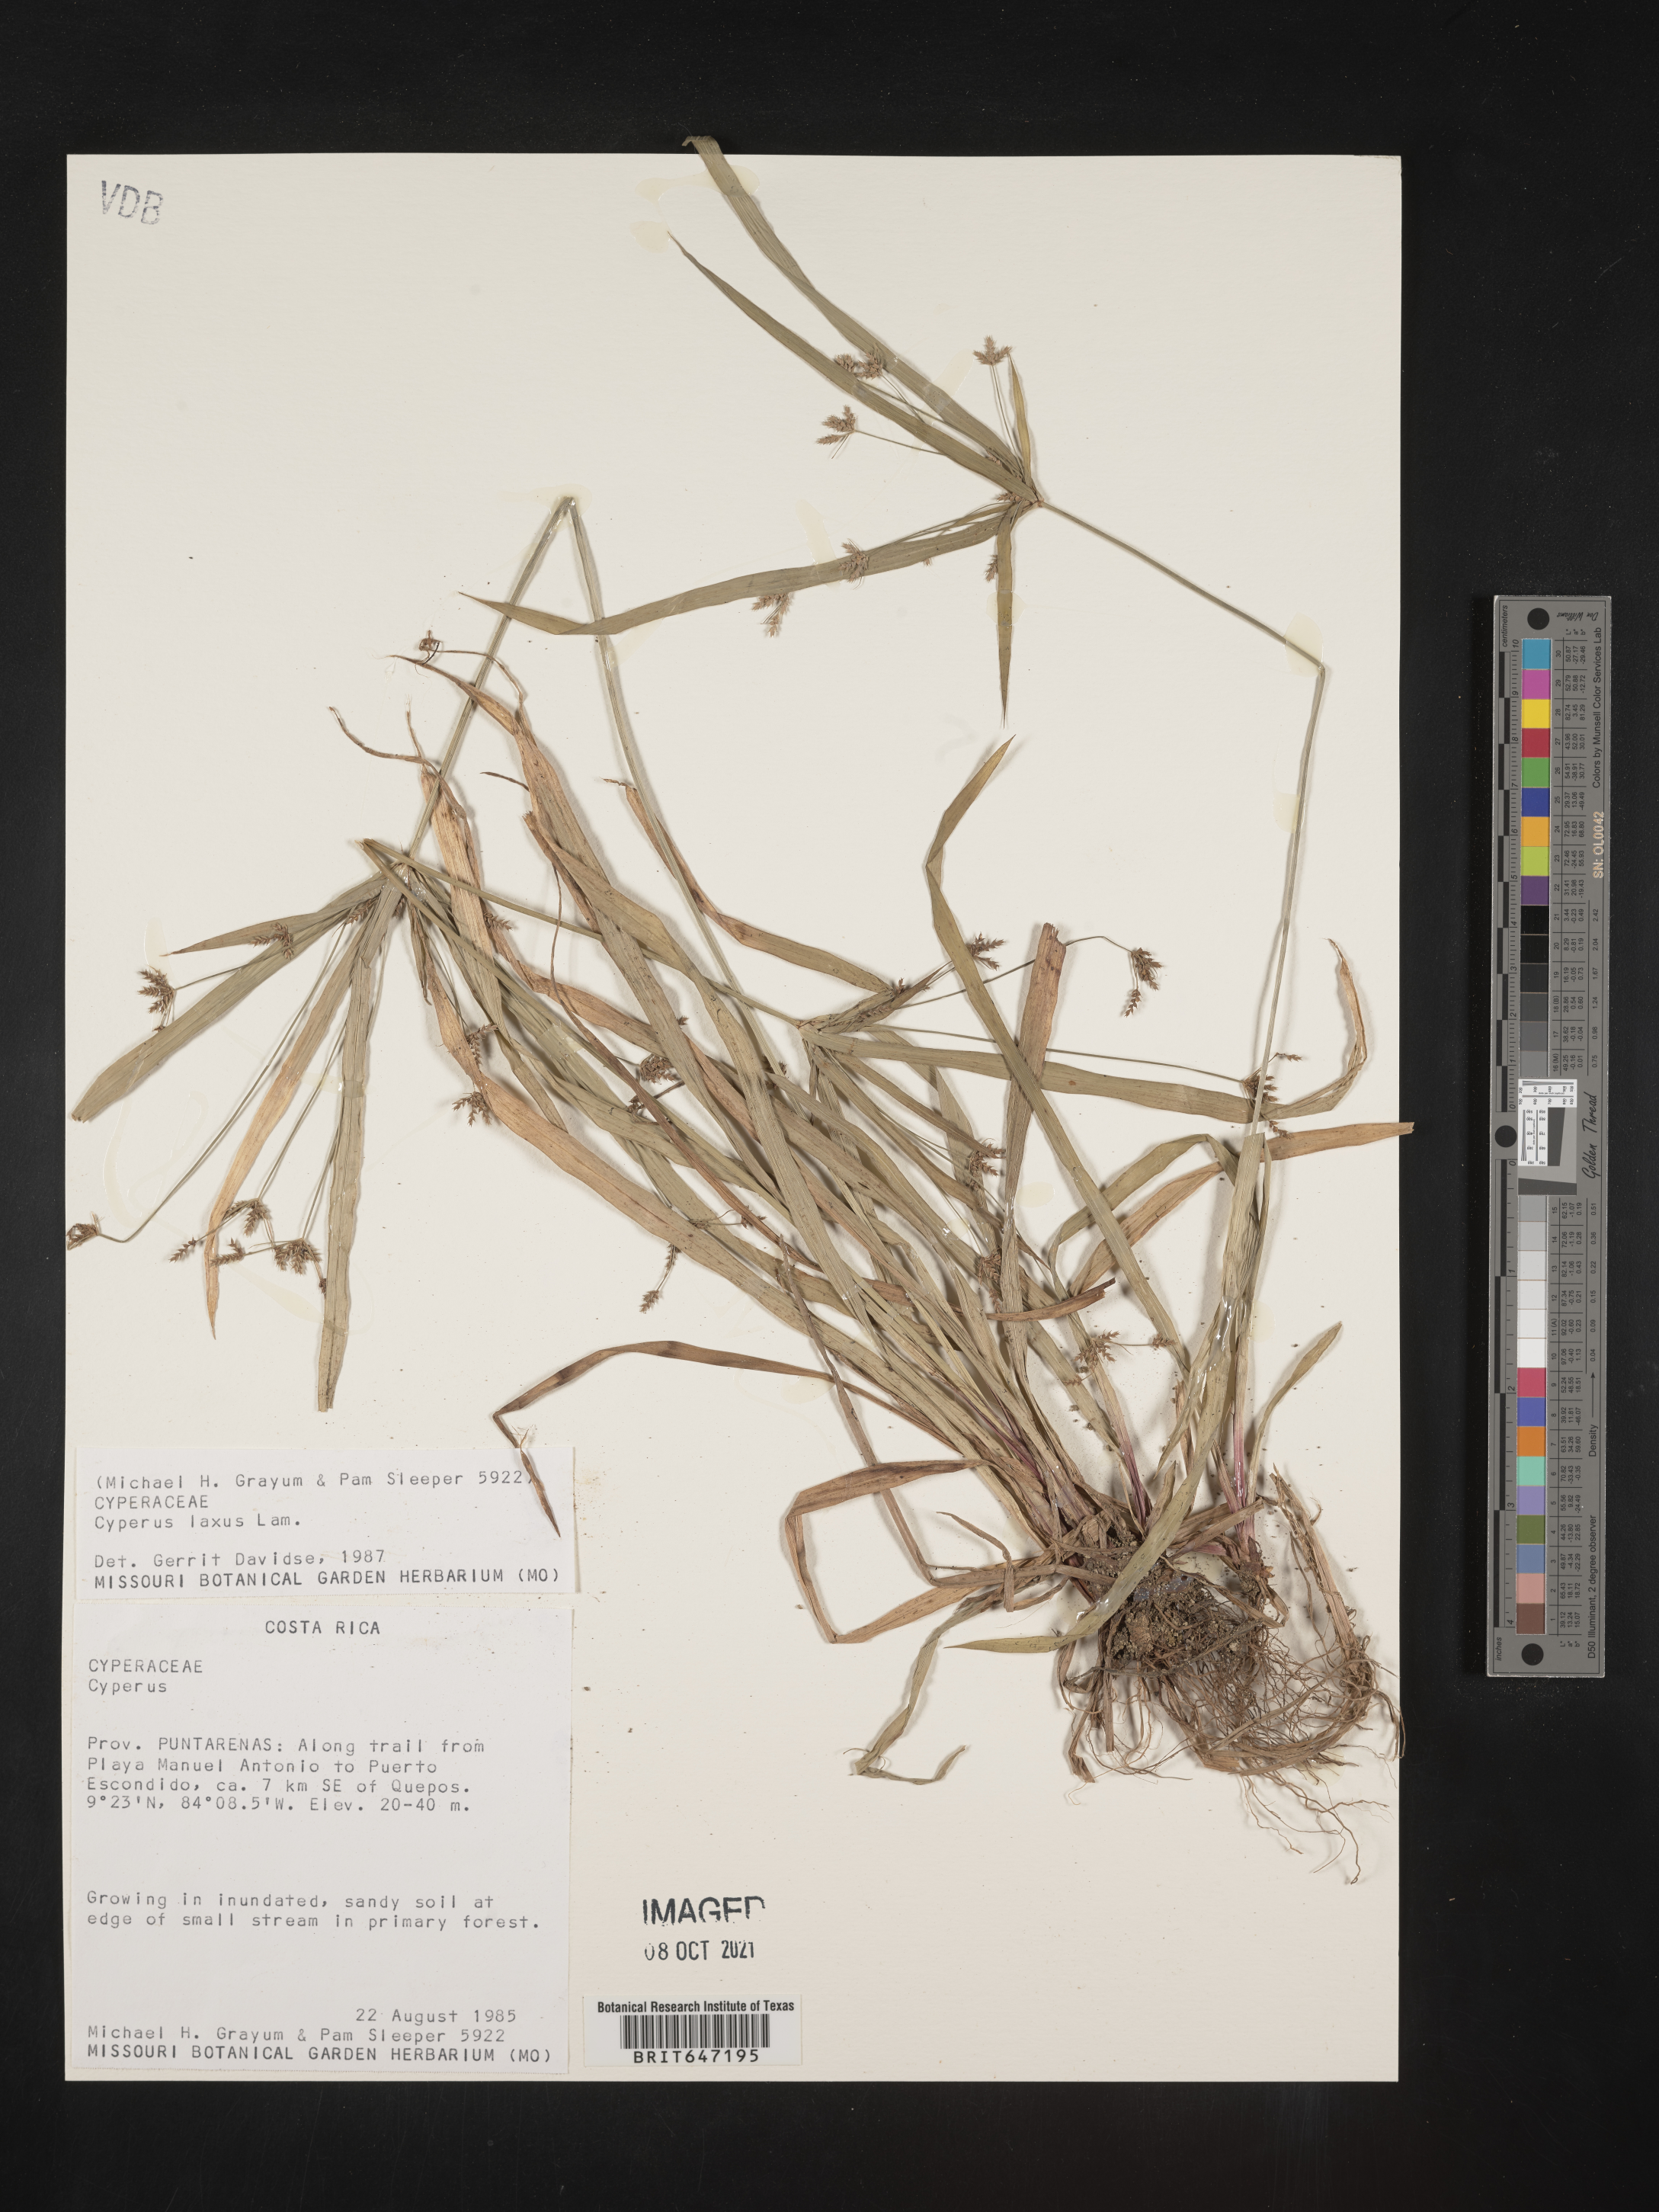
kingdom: Plantae
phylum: Tracheophyta
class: Liliopsida
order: Poales
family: Cyperaceae
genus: Cyperus
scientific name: Cyperus laxus
